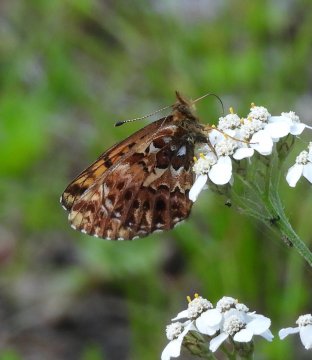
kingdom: Animalia
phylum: Arthropoda
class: Insecta
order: Lepidoptera
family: Nymphalidae
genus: Boloria
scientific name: Boloria chariclea
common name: Arctic Fritillary
